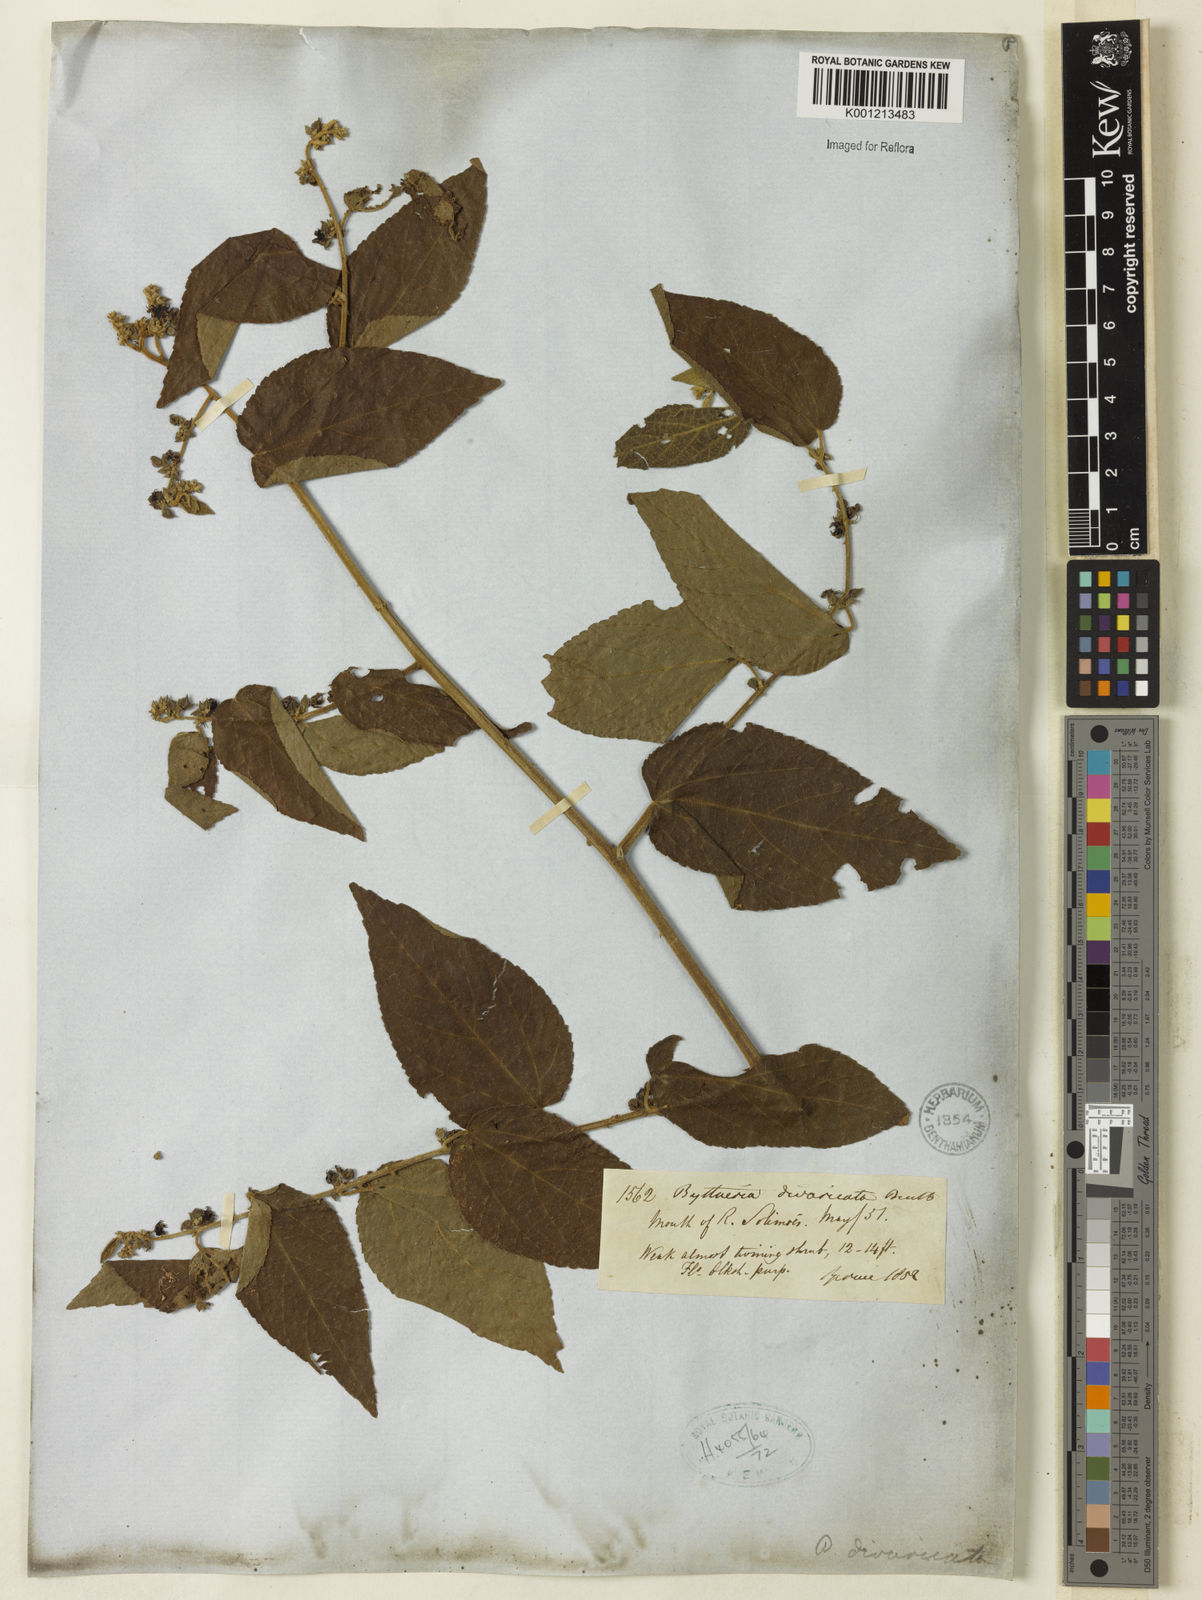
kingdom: Plantae
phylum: Tracheophyta
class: Magnoliopsida
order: Malvales
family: Malvaceae
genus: Byttneria
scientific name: Byttneria divaricata
